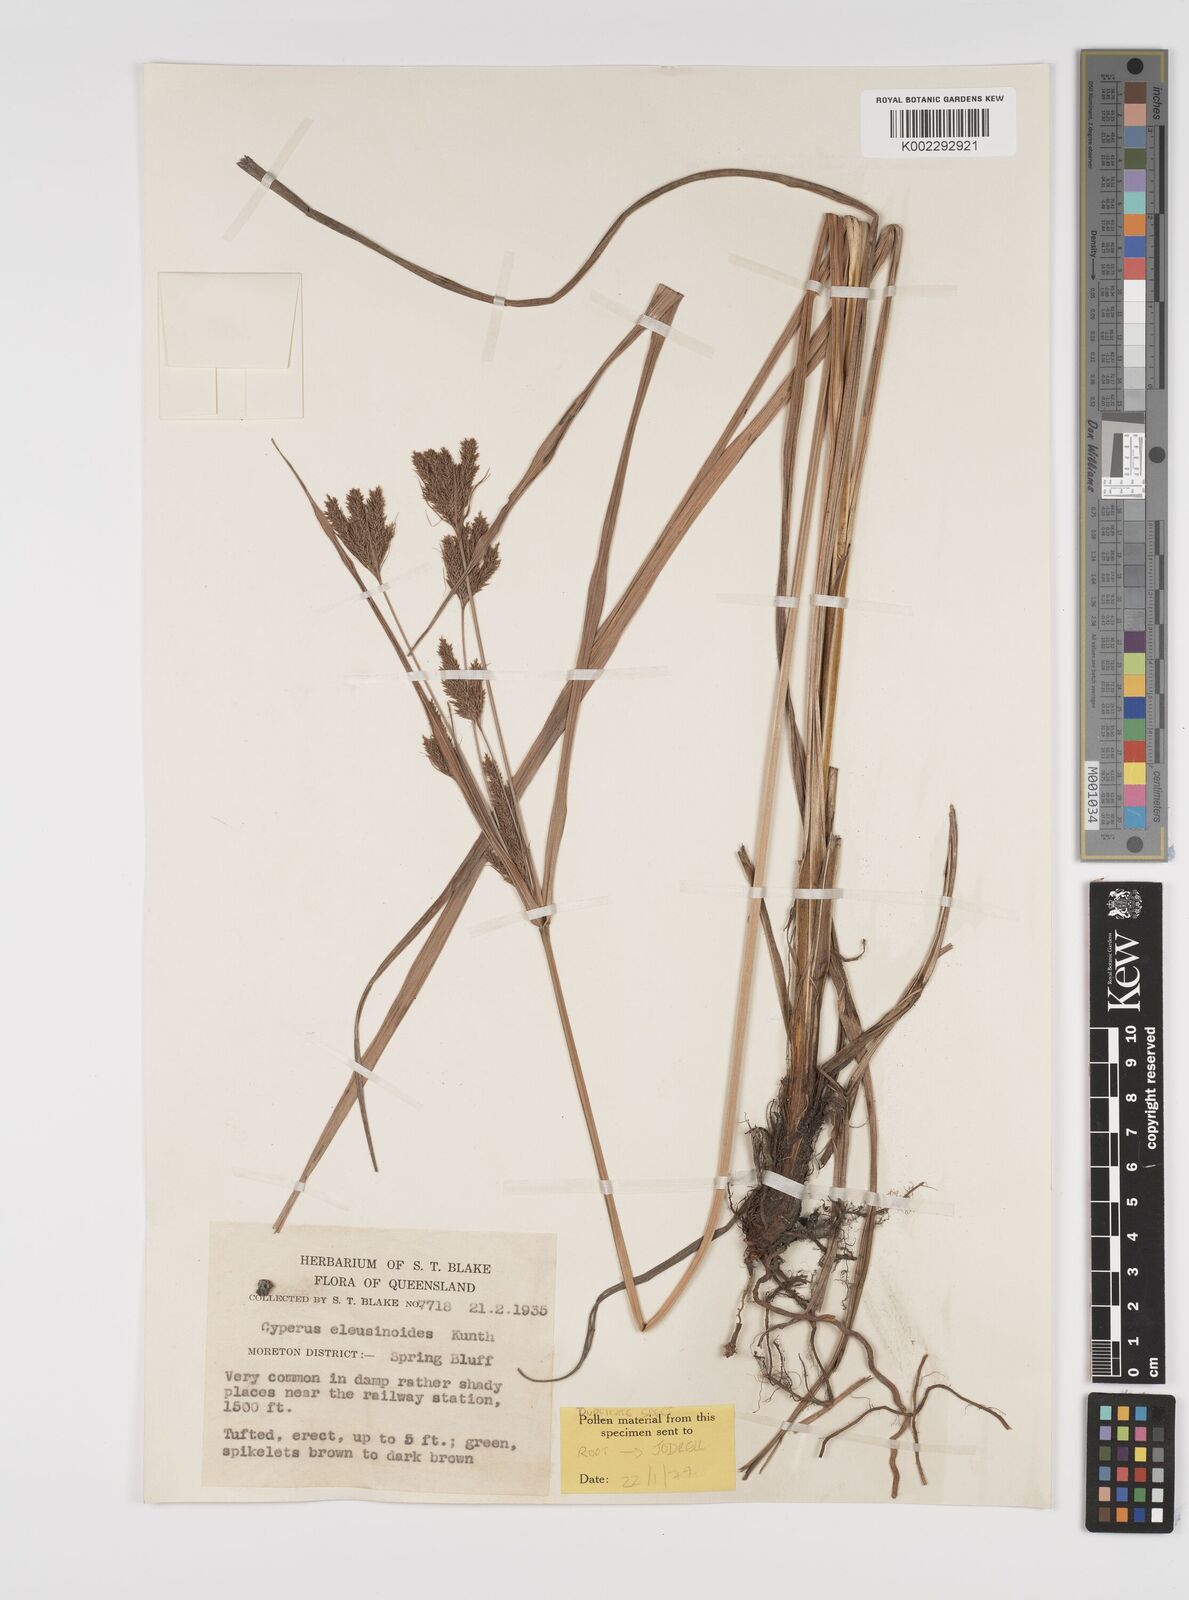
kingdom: Plantae
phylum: Tracheophyta
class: Liliopsida
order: Poales
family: Cyperaceae
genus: Cyperus
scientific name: Cyperus nutans
